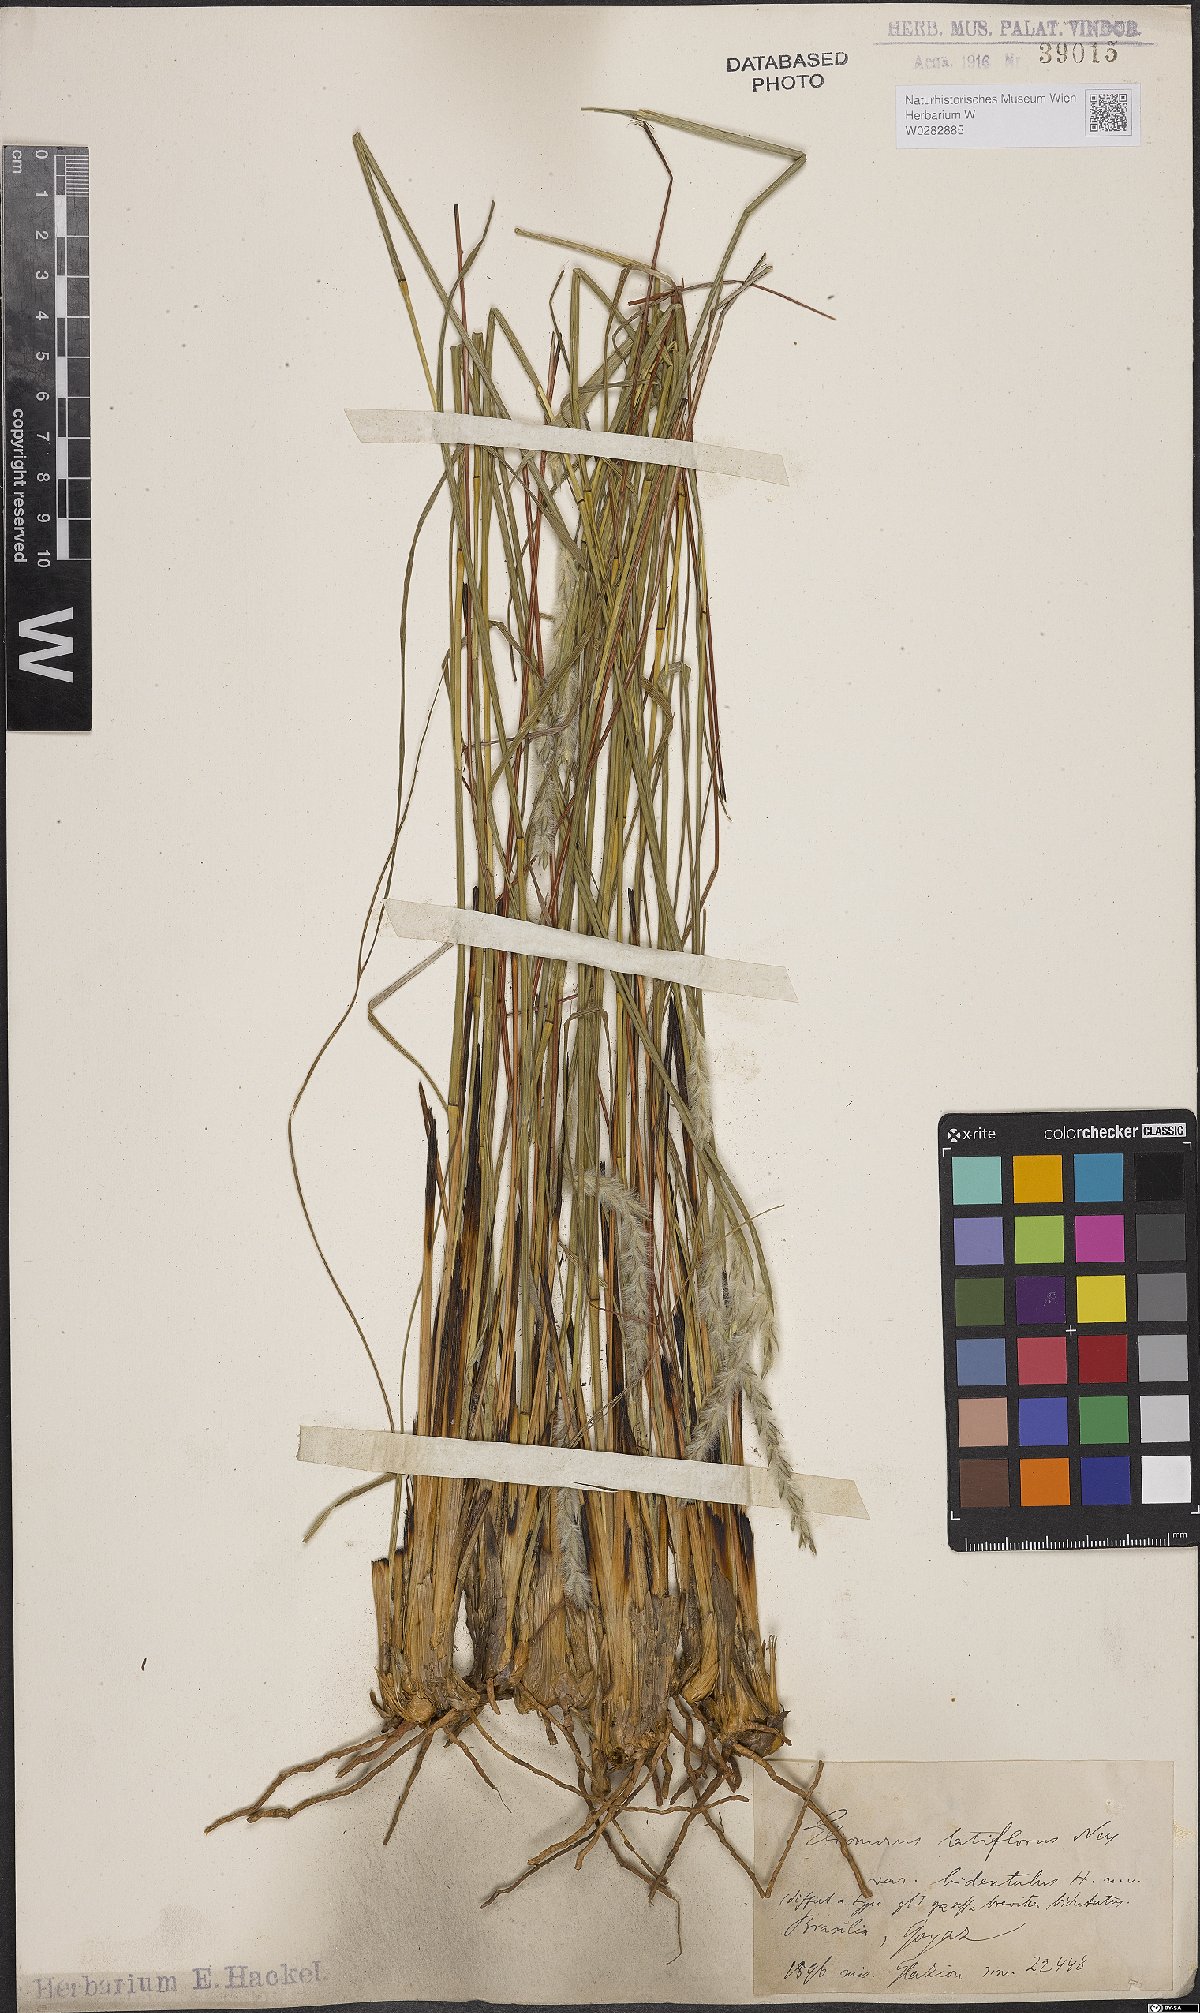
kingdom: Plantae
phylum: Tracheophyta
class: Liliopsida
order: Poales
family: Poaceae
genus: Elionurus
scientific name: Elionurus muticus
